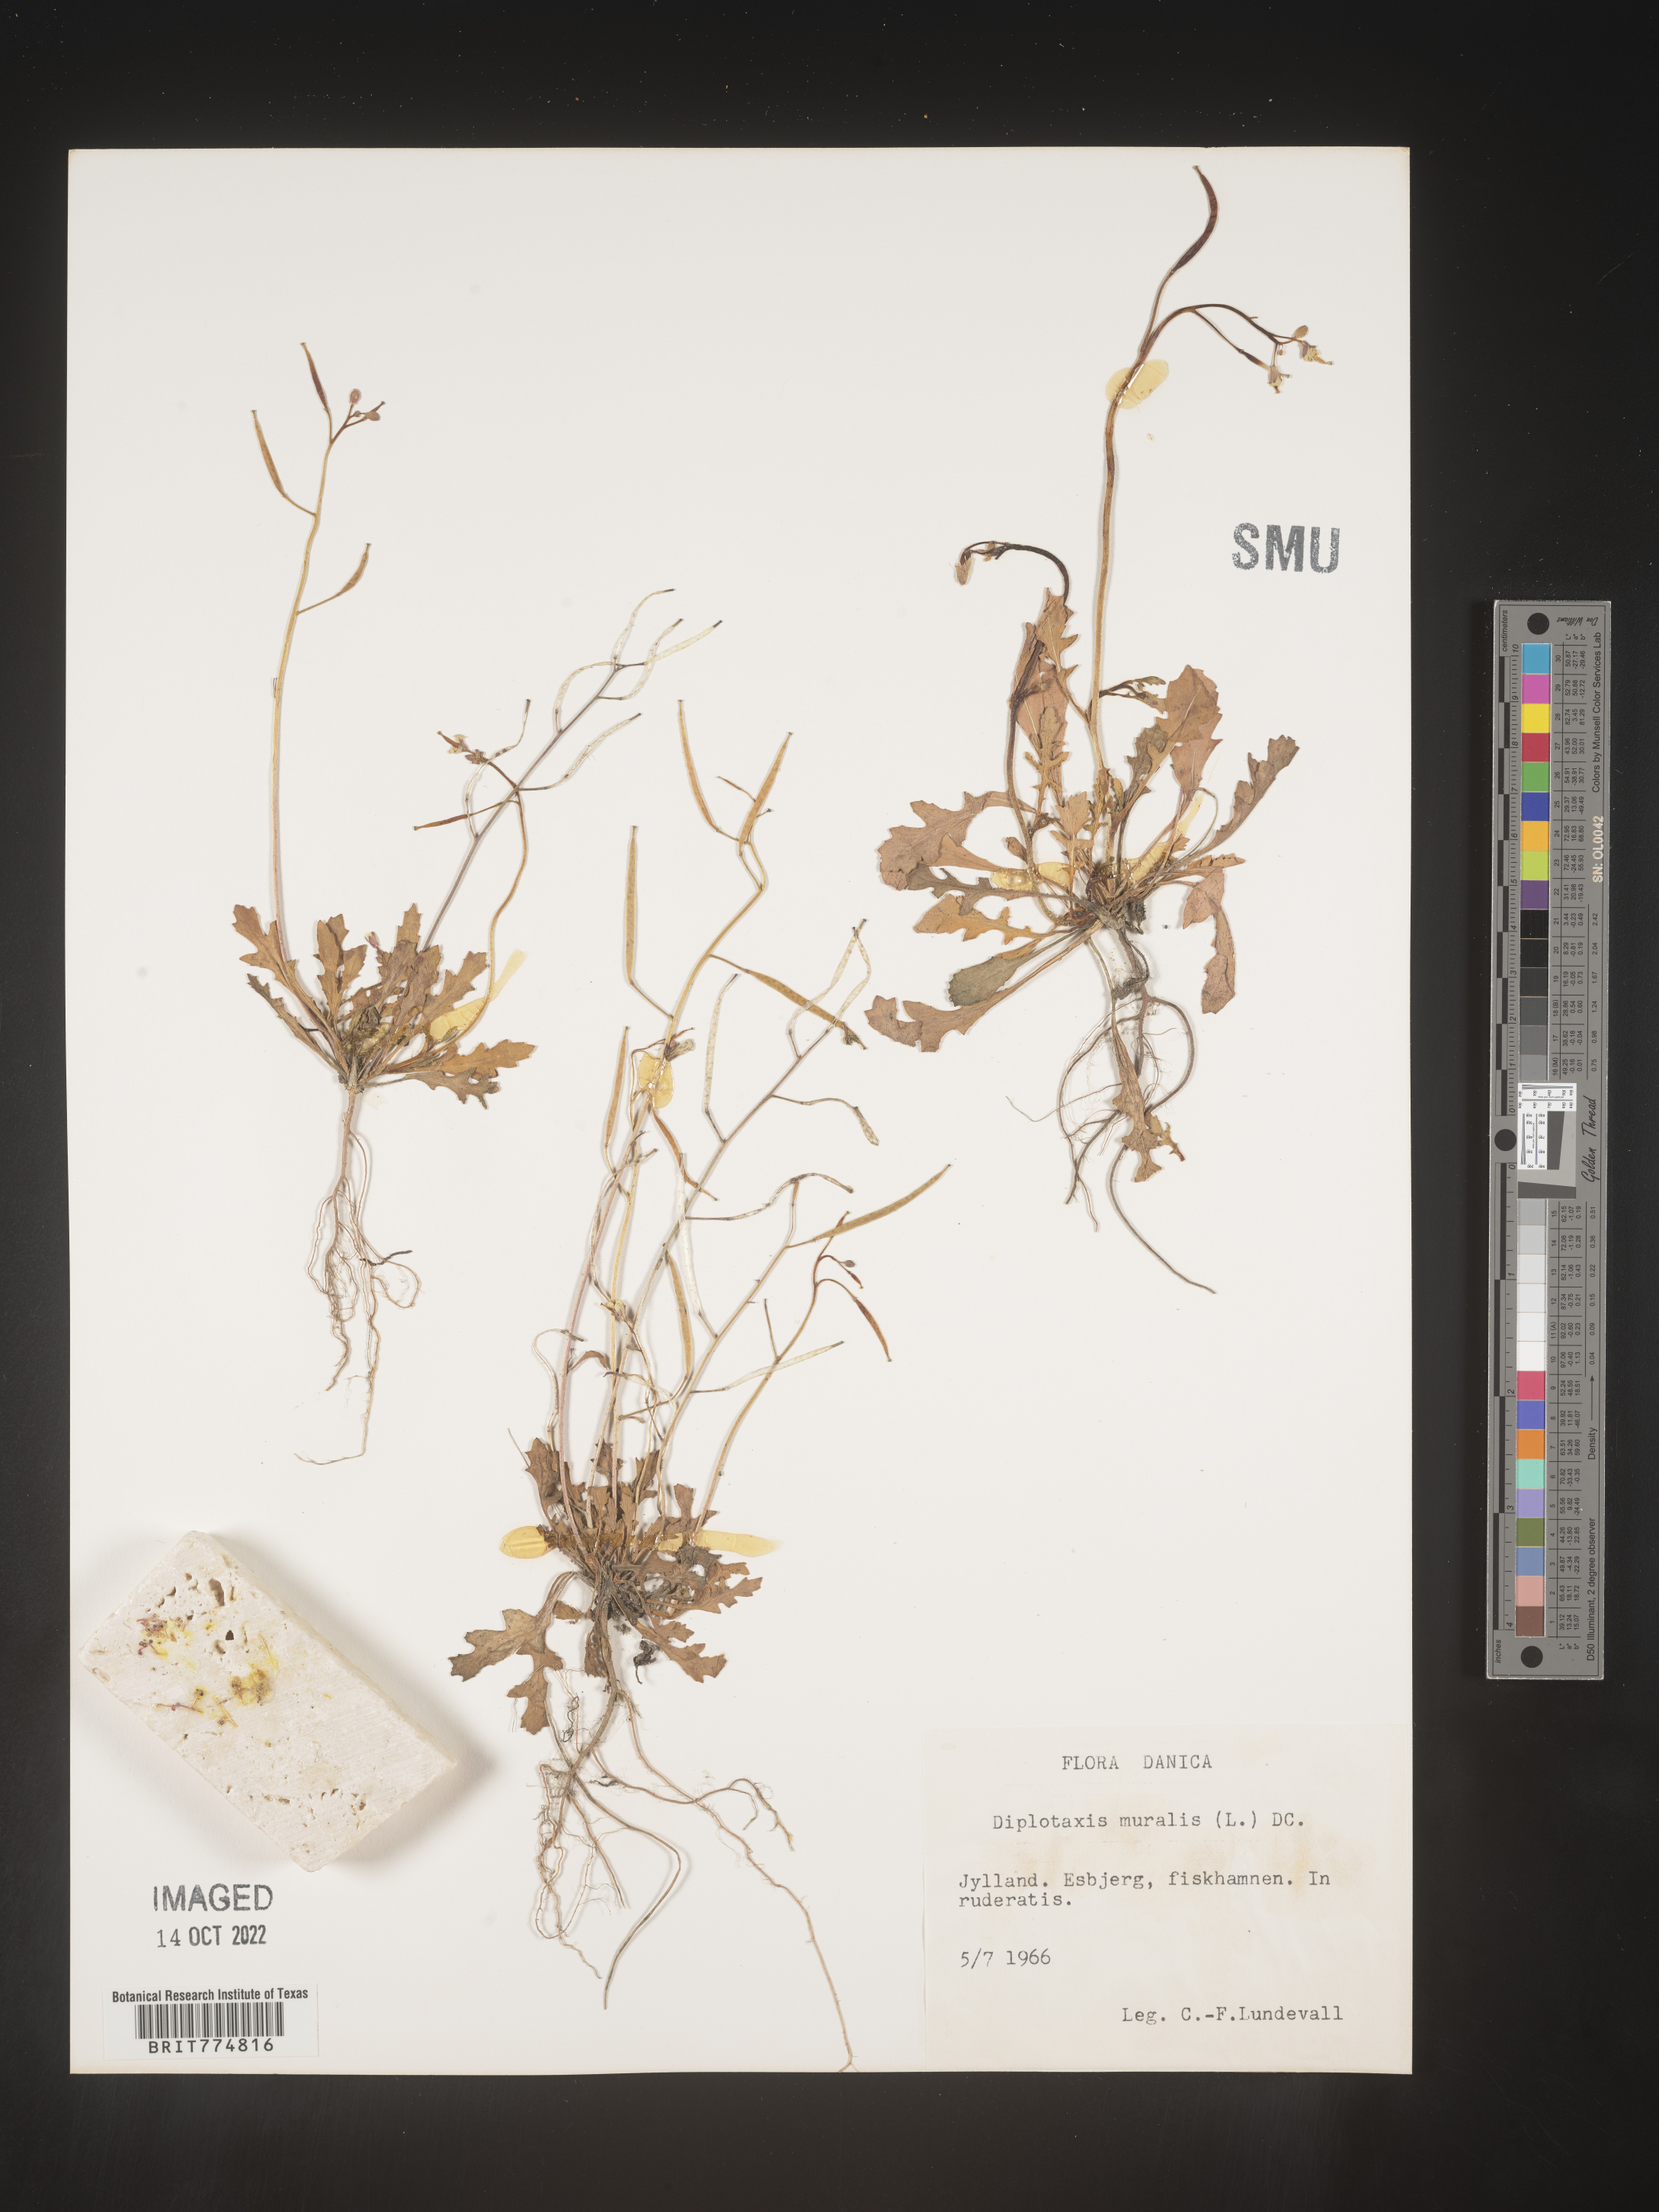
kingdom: Plantae
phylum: Tracheophyta
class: Magnoliopsida
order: Brassicales
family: Brassicaceae
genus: Diplotaxis
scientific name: Diplotaxis
